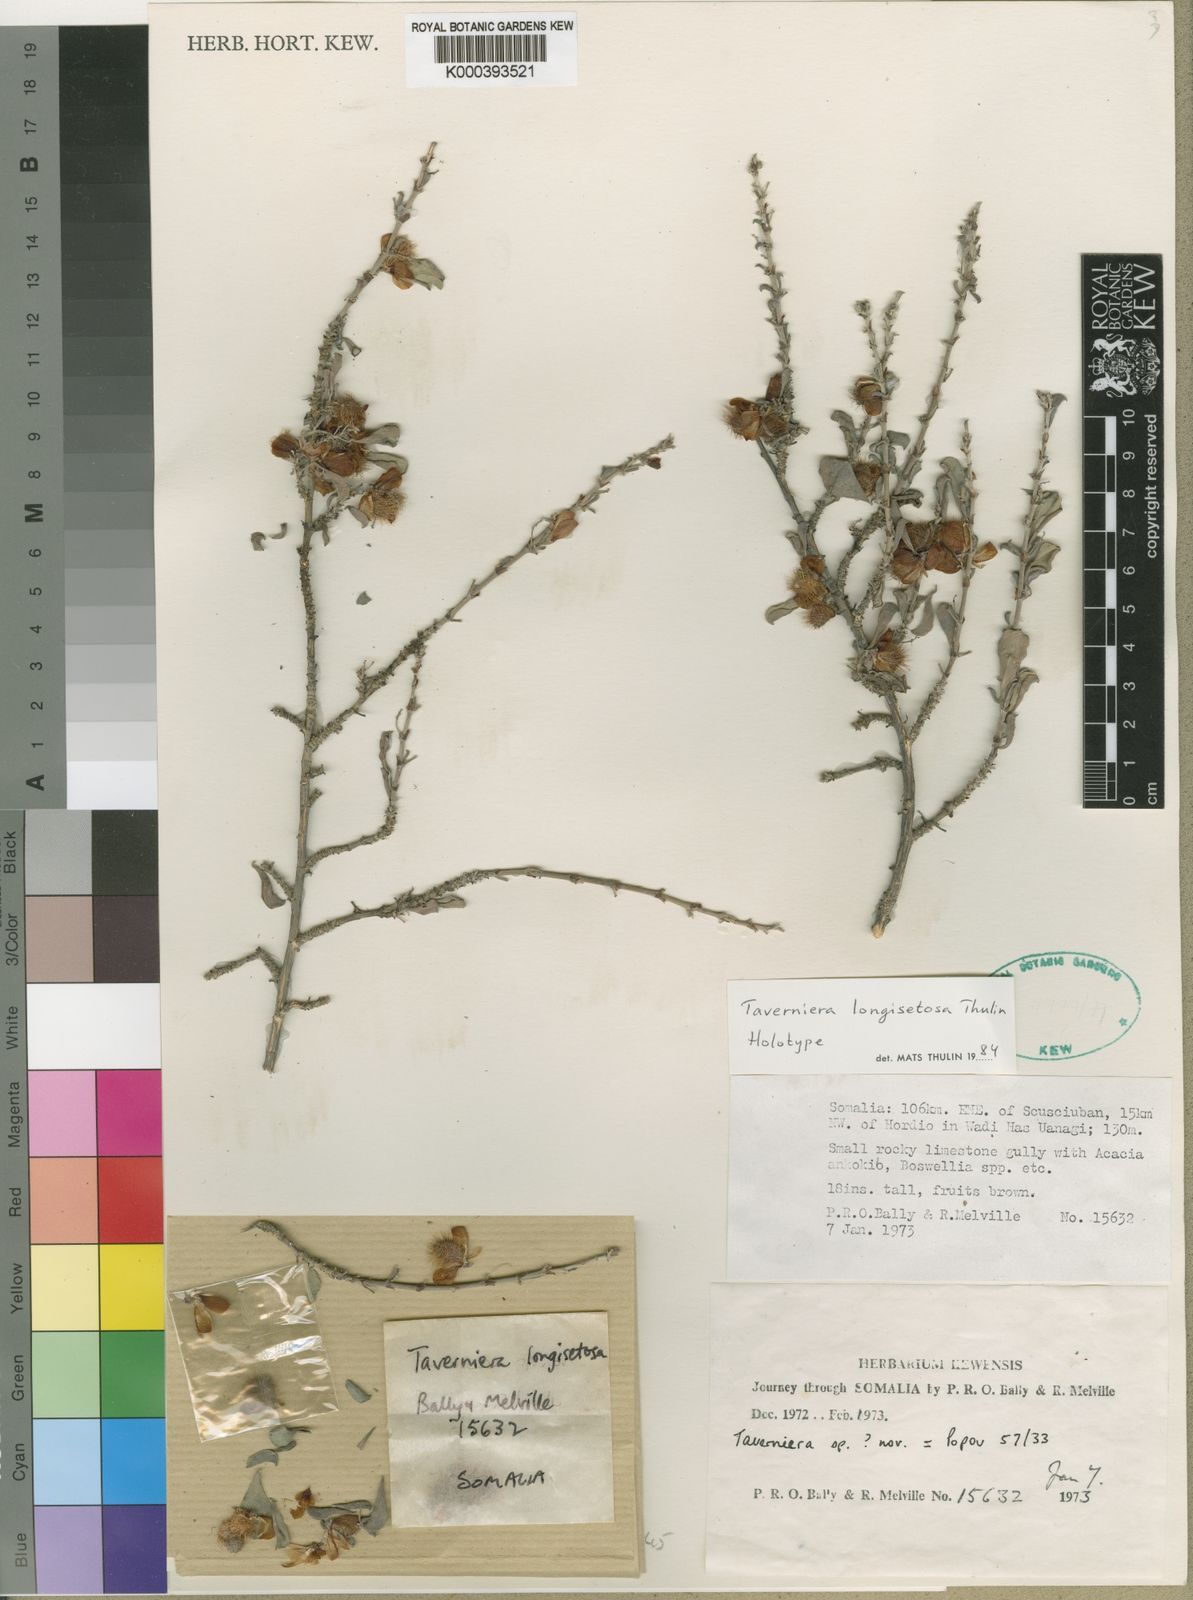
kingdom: Plantae
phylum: Tracheophyta
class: Magnoliopsida
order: Fabales
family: Fabaceae
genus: Taverniera
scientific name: Taverniera longisetosa
